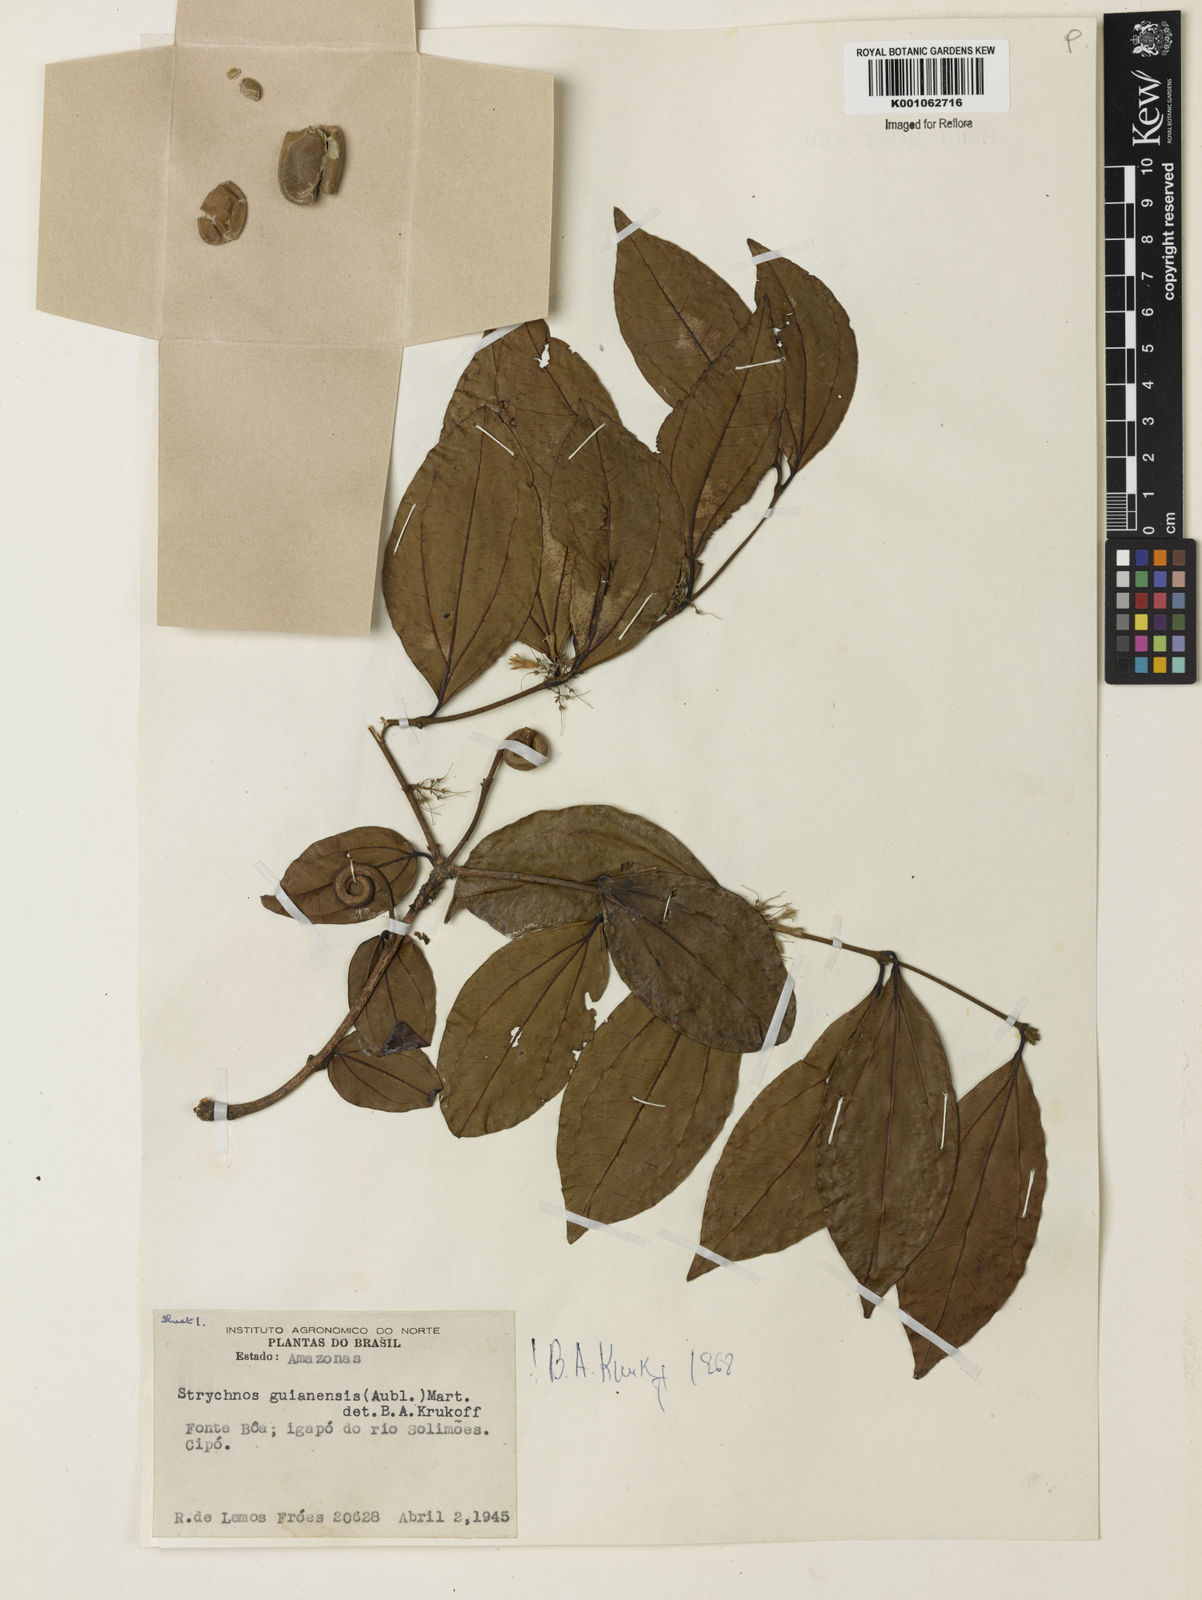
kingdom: Plantae
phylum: Tracheophyta
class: Magnoliopsida
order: Gentianales
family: Loganiaceae
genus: Strychnos
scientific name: Strychnos guianensis
